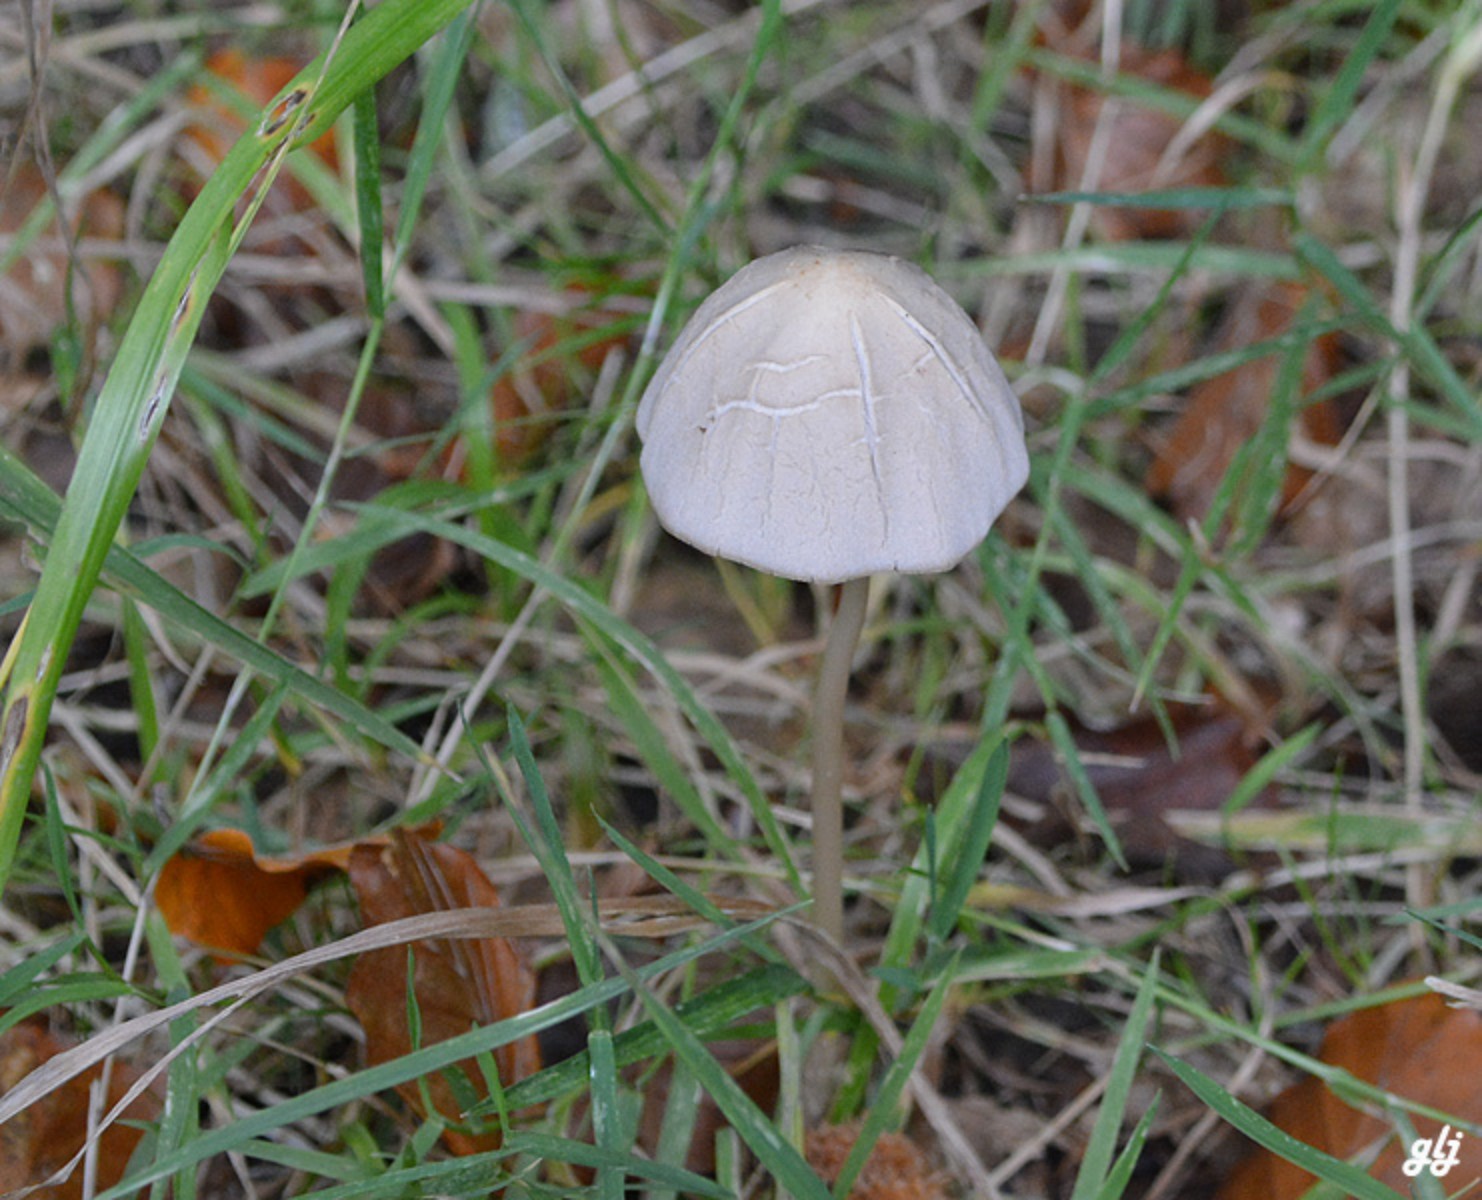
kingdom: Fungi
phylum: Basidiomycota
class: Agaricomycetes
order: Agaricales
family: Psathyrellaceae
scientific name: Psathyrellaceae
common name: mørkhatfamilien
